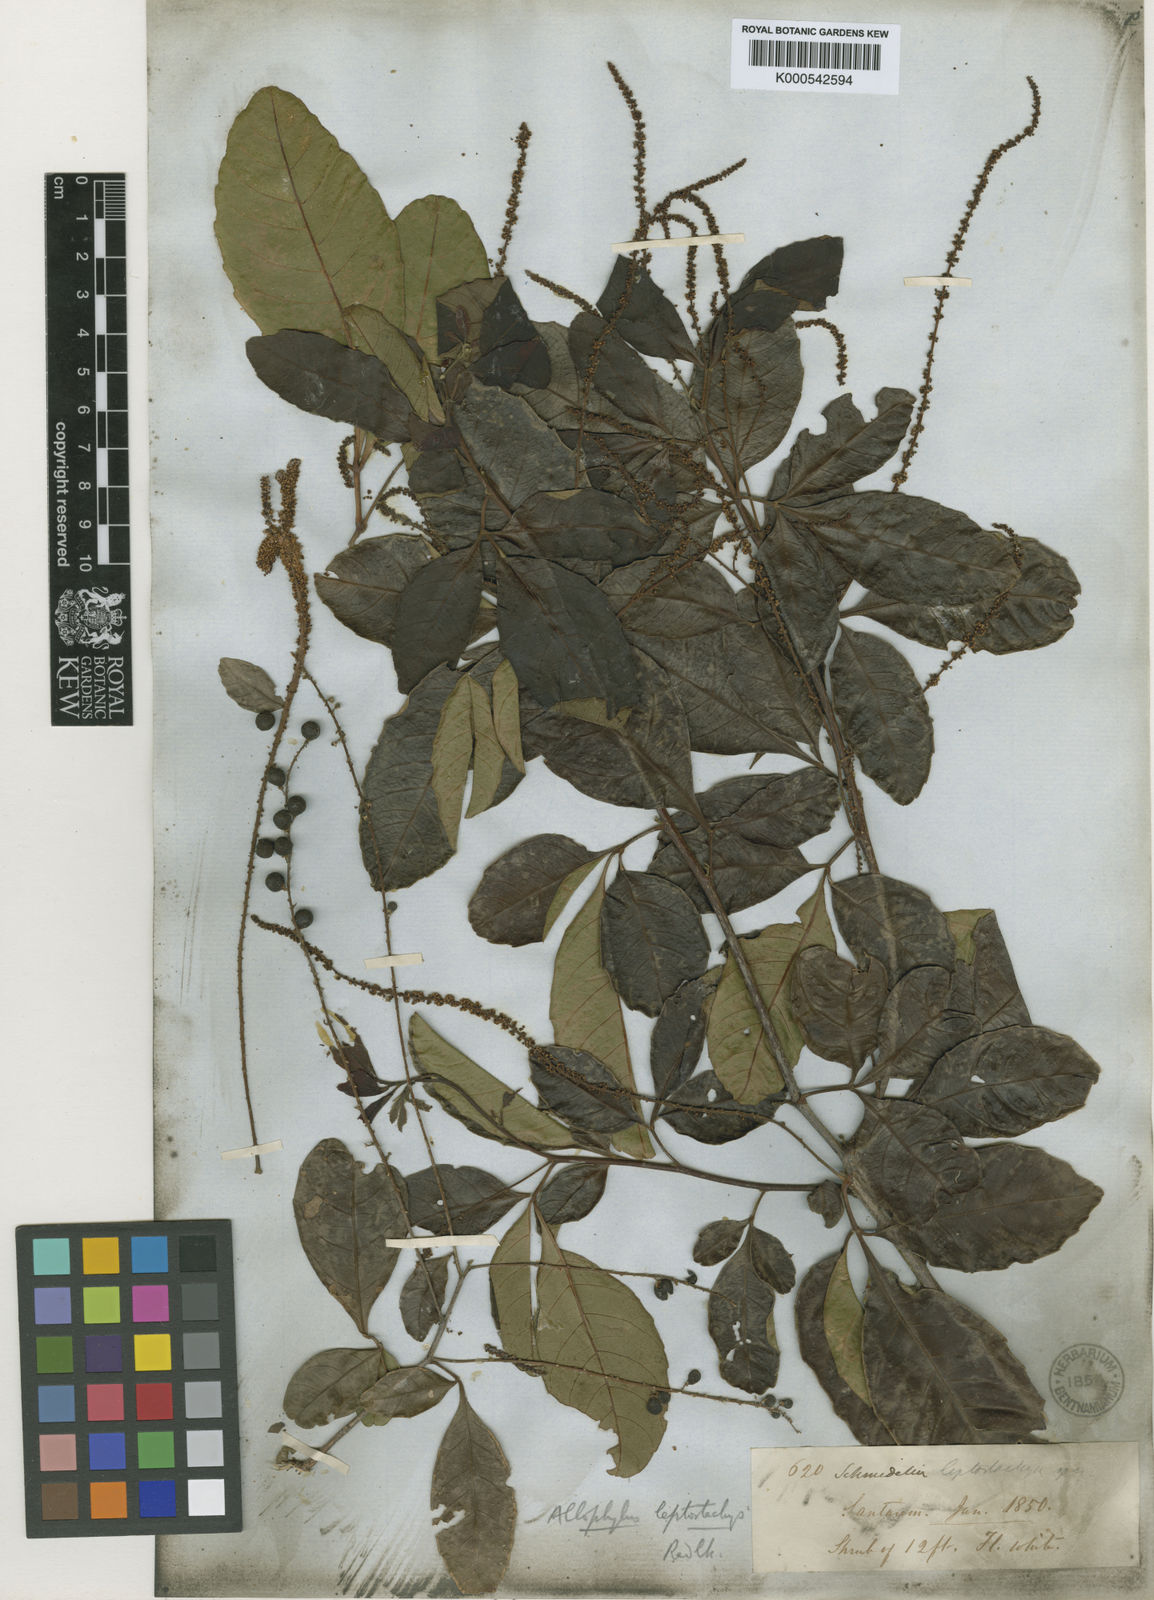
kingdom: Plantae
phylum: Tracheophyta
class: Magnoliopsida
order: Sapindales
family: Sapindaceae
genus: Allophylus
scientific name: Allophylus leptostachys
